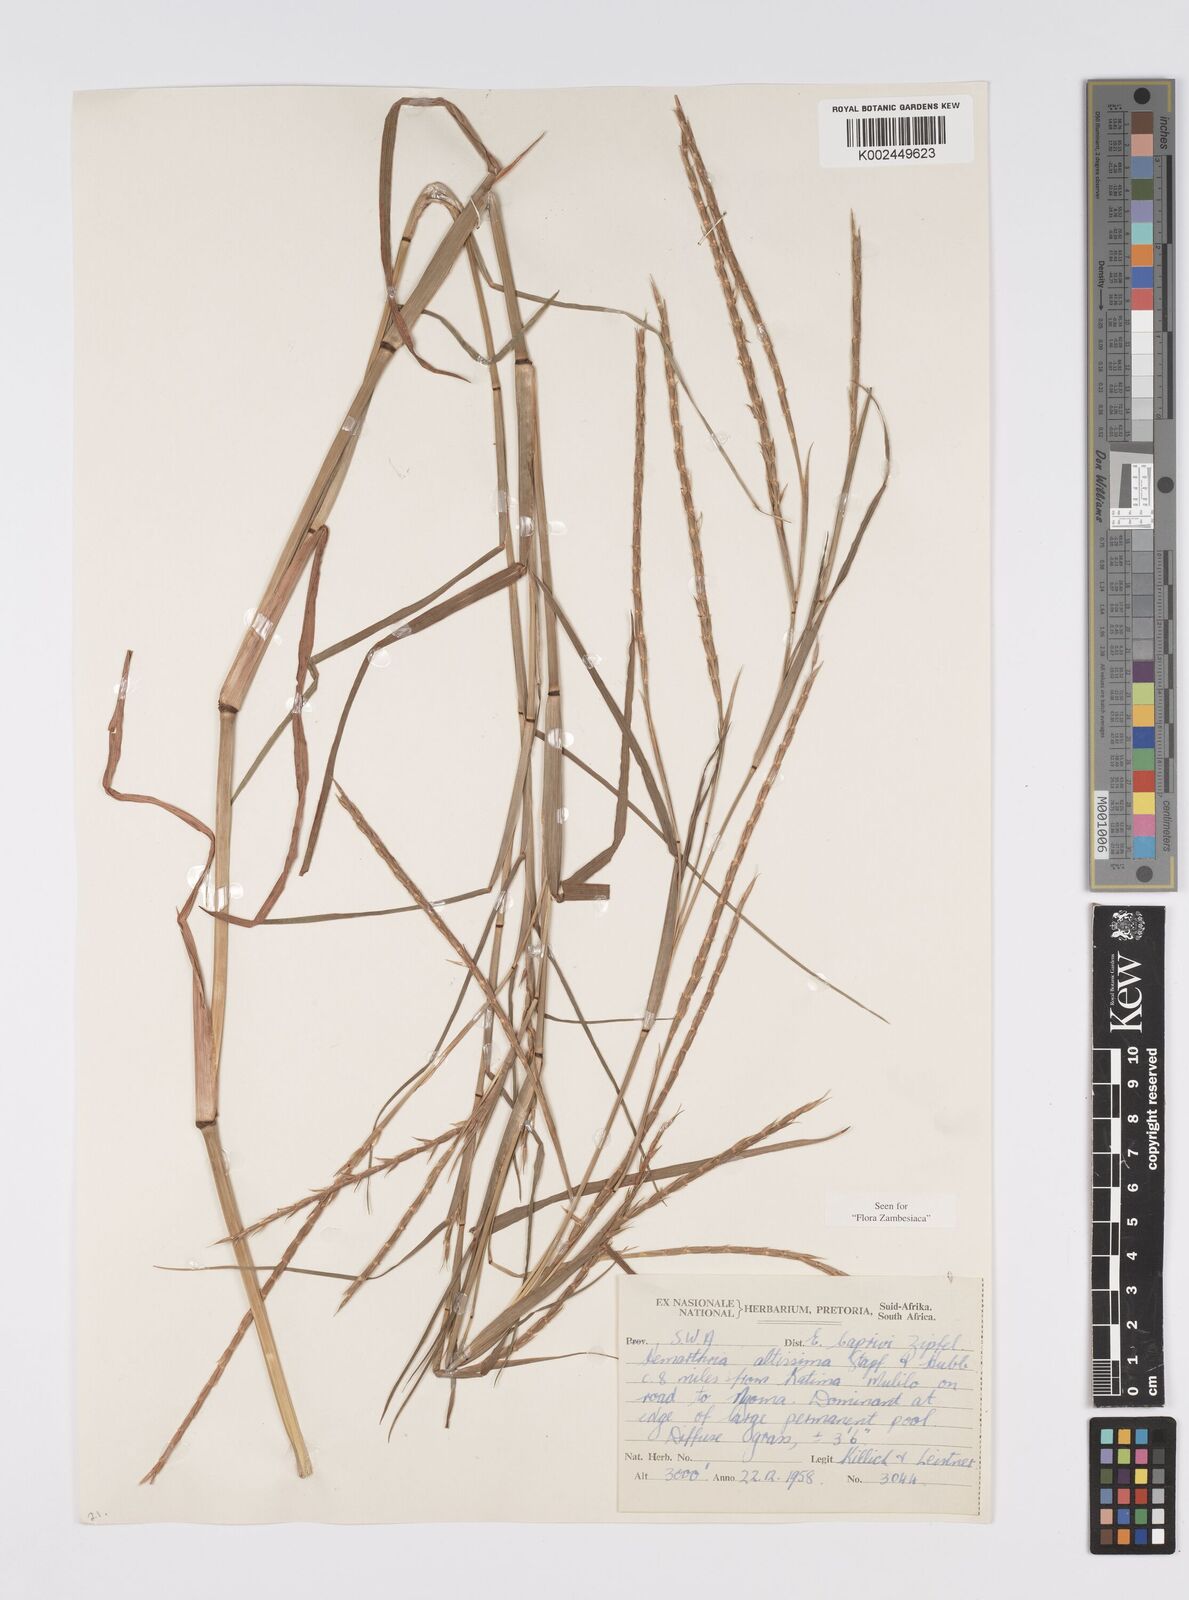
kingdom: Plantae
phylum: Tracheophyta
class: Liliopsida
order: Poales
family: Poaceae
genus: Hemarthria
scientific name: Hemarthria altissima
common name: African jointgrass
